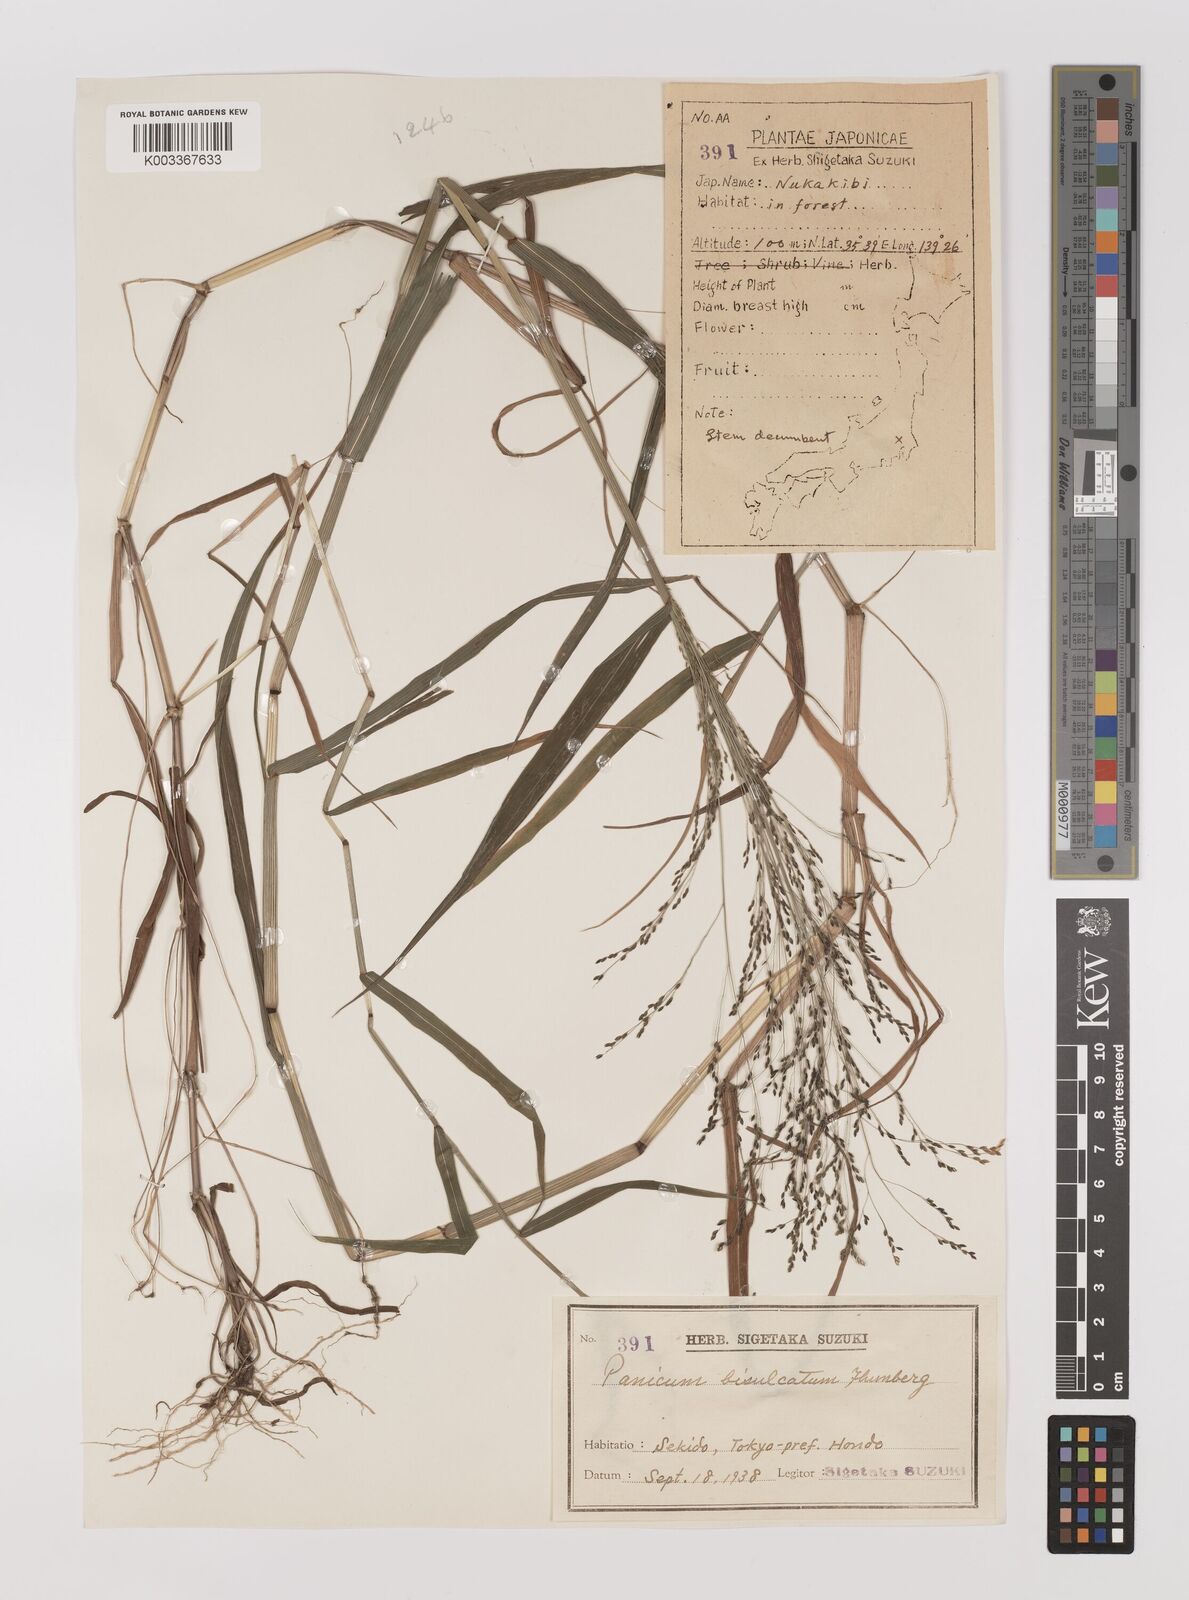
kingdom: Plantae
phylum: Tracheophyta
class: Liliopsida
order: Poales
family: Poaceae
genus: Panicum
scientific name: Panicum bisulcatum
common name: Japanese panicgrass
